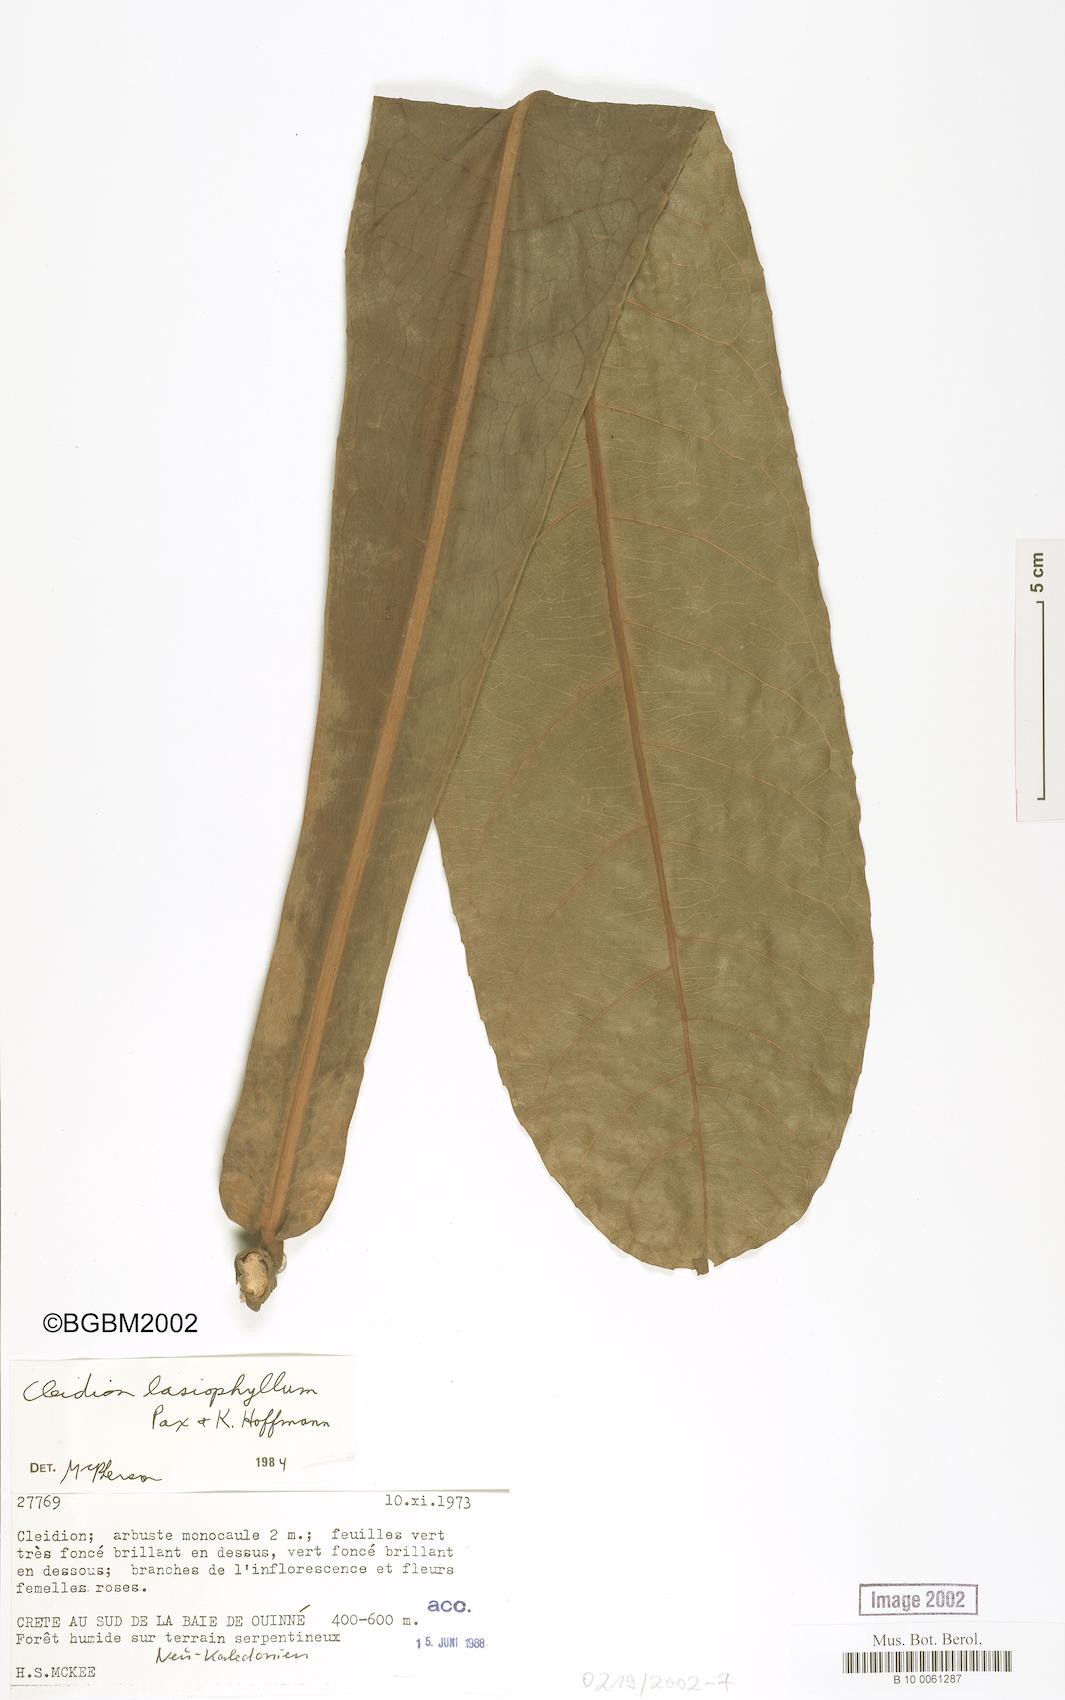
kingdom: Plantae
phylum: Tracheophyta
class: Magnoliopsida
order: Malpighiales
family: Euphorbiaceae
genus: Cleidion
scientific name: Cleidion lasiophyllum
